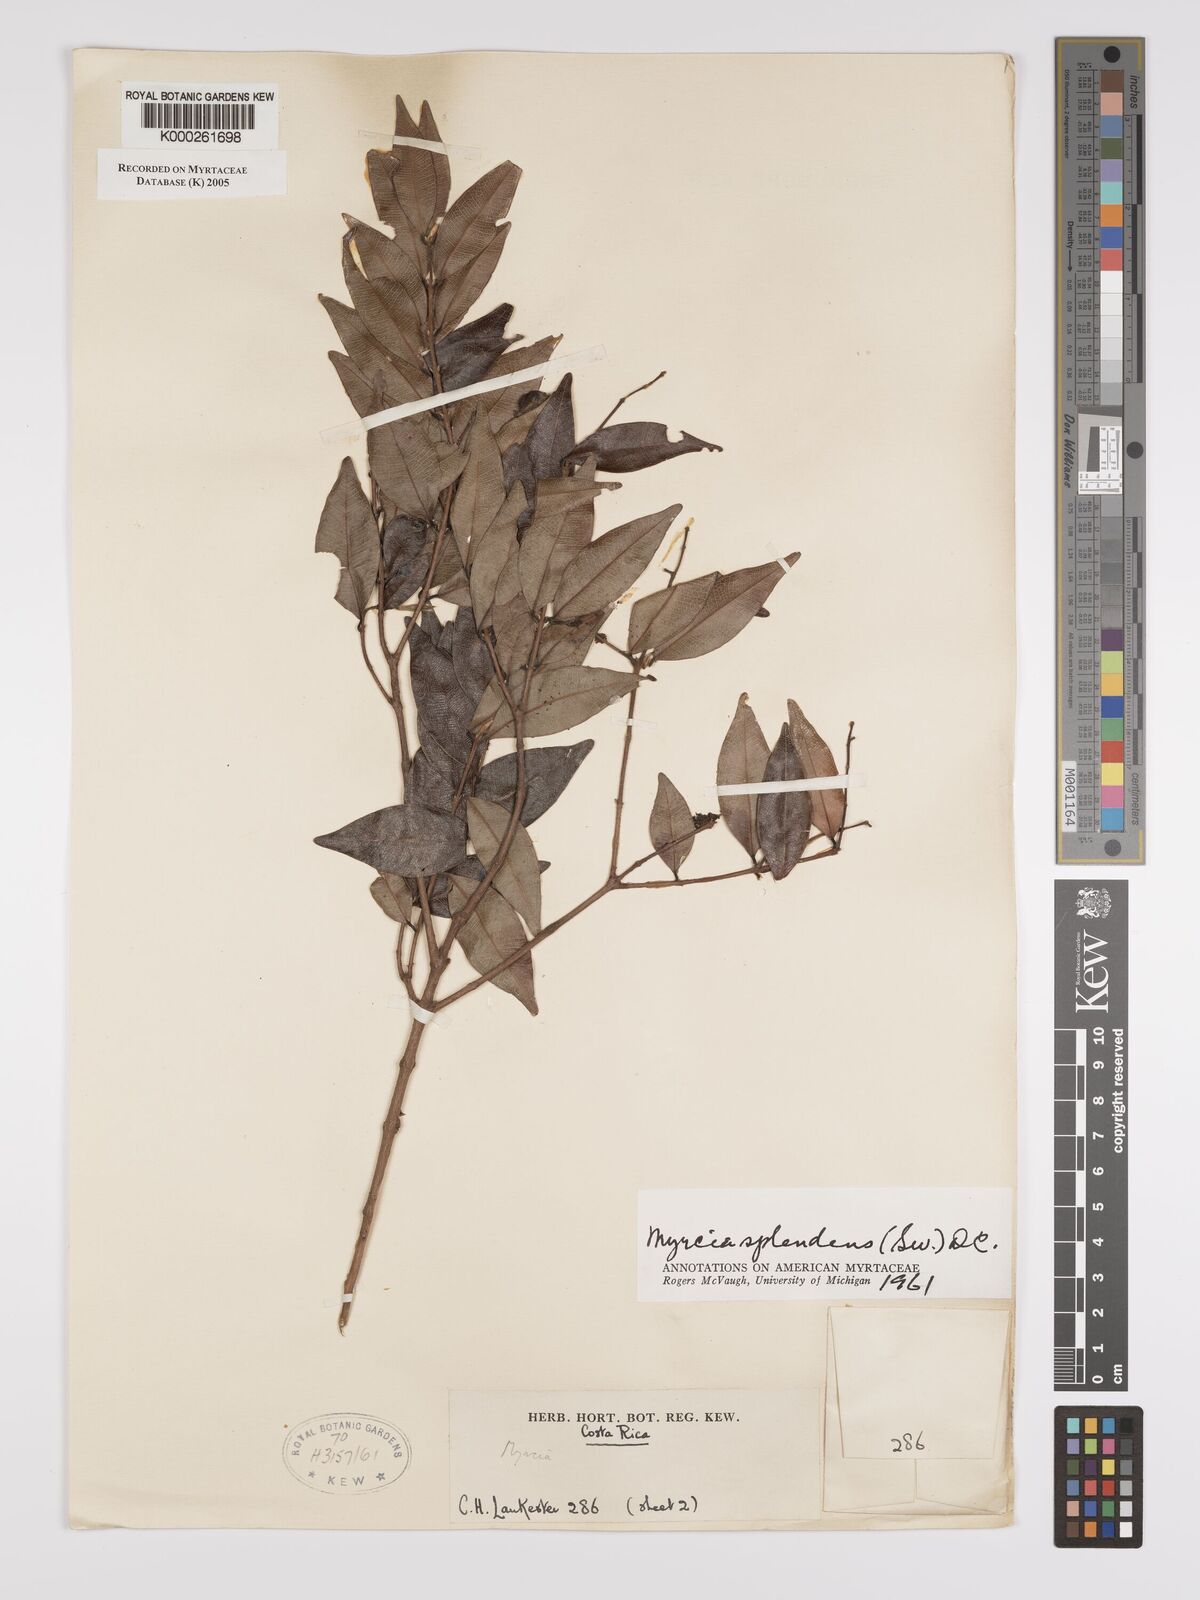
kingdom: Plantae
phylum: Tracheophyta
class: Magnoliopsida
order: Myrtales
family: Myrtaceae
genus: Myrcia
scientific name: Myrcia splendens
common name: Surinam cherry
